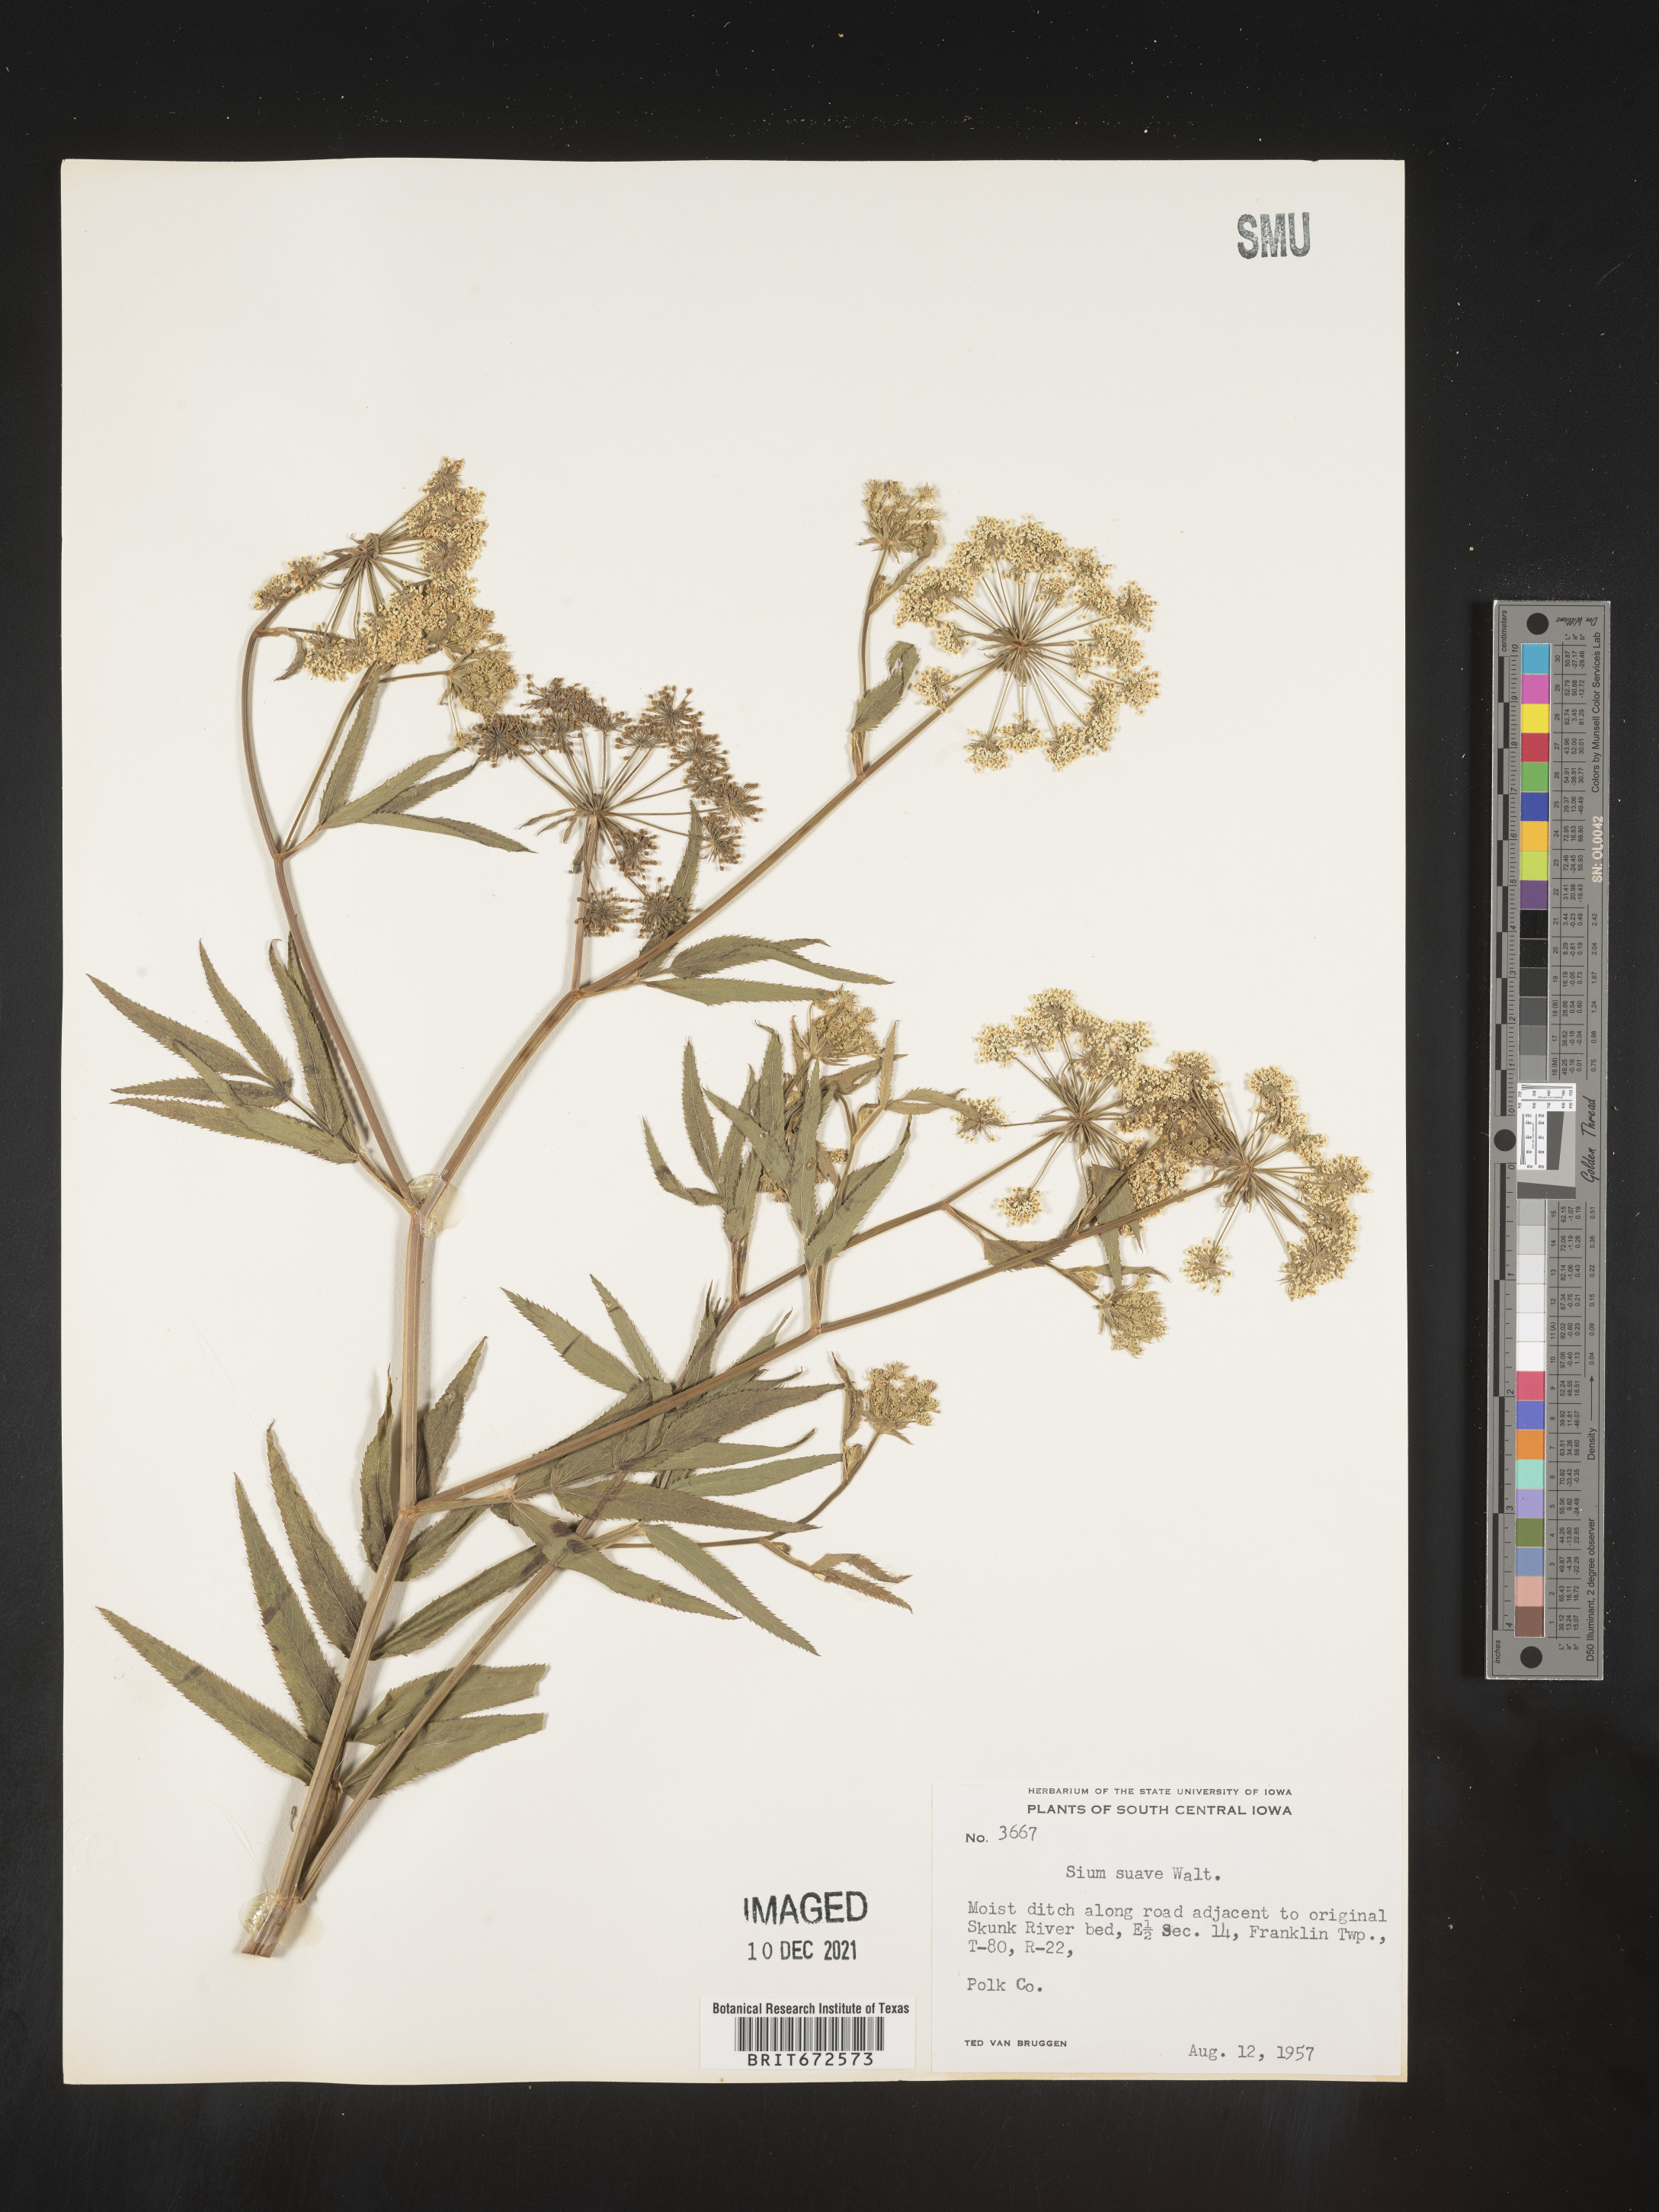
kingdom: Plantae
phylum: Tracheophyta
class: Magnoliopsida
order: Apiales
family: Apiaceae
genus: Sium
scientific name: Sium suave
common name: Hemlock water-parsnip
